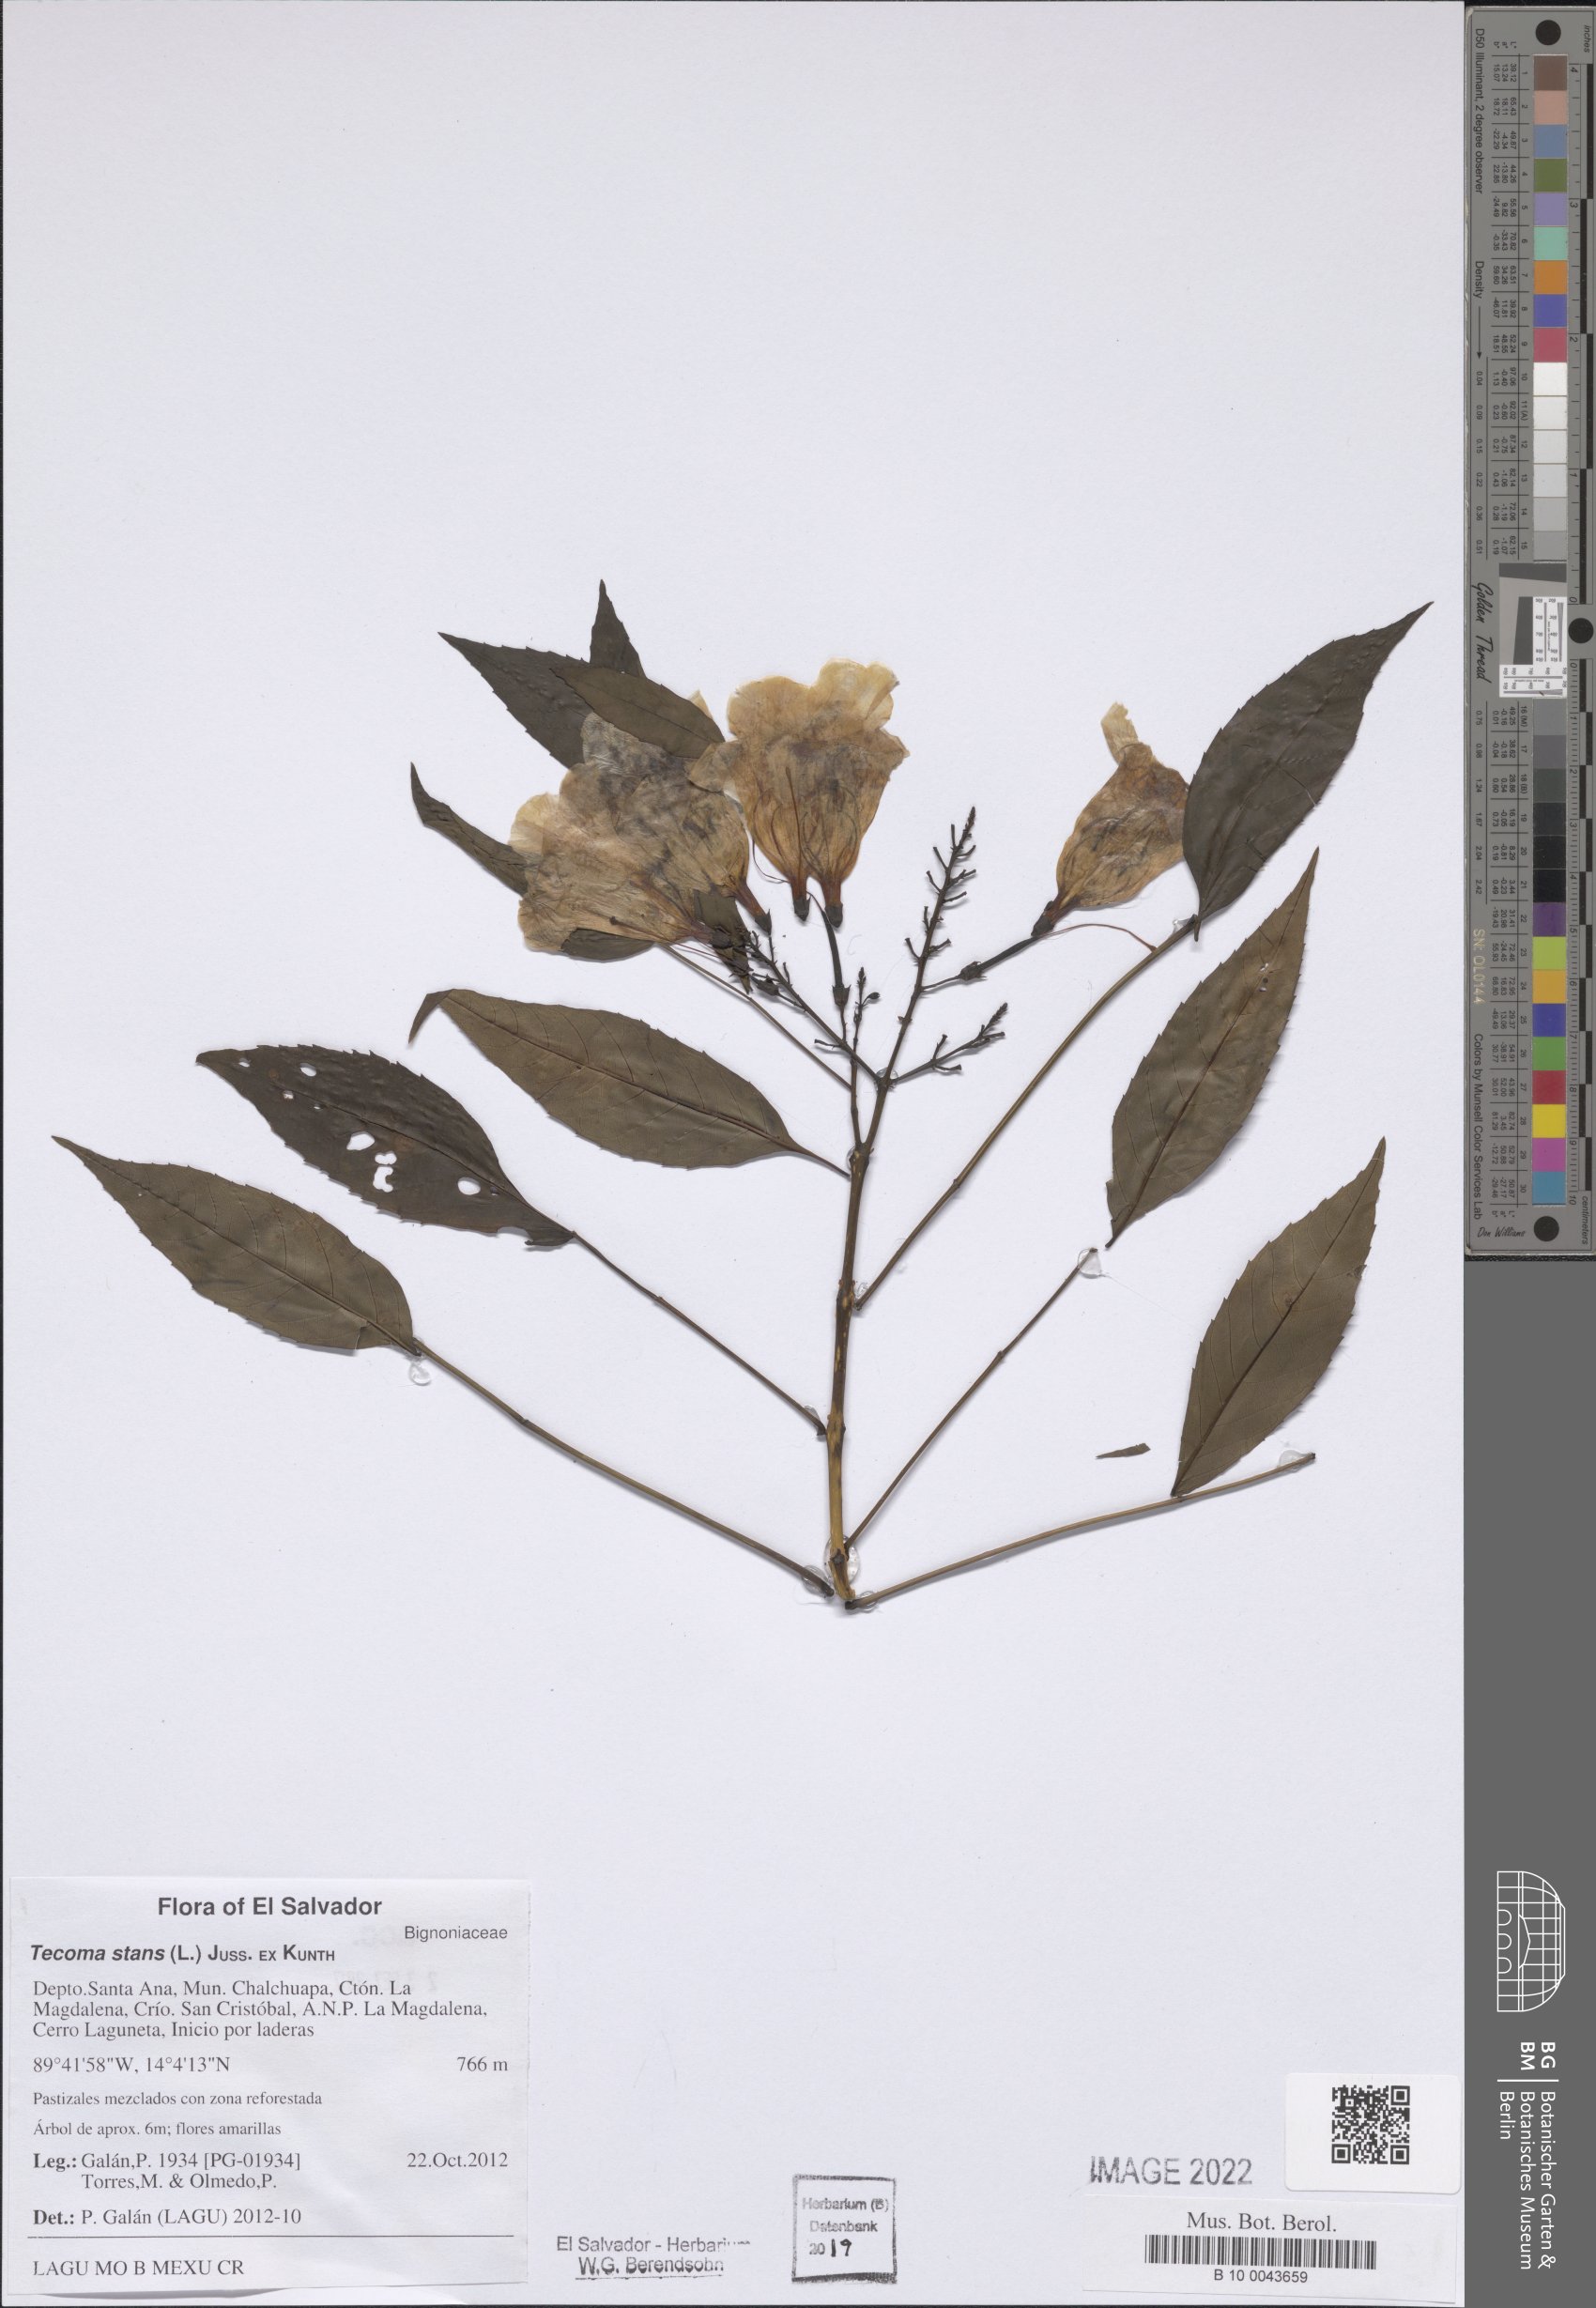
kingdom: Plantae
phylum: Tracheophyta
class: Magnoliopsida
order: Lamiales
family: Bignoniaceae
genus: Tecoma
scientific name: Tecoma stans
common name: Yellow trumpetbush
